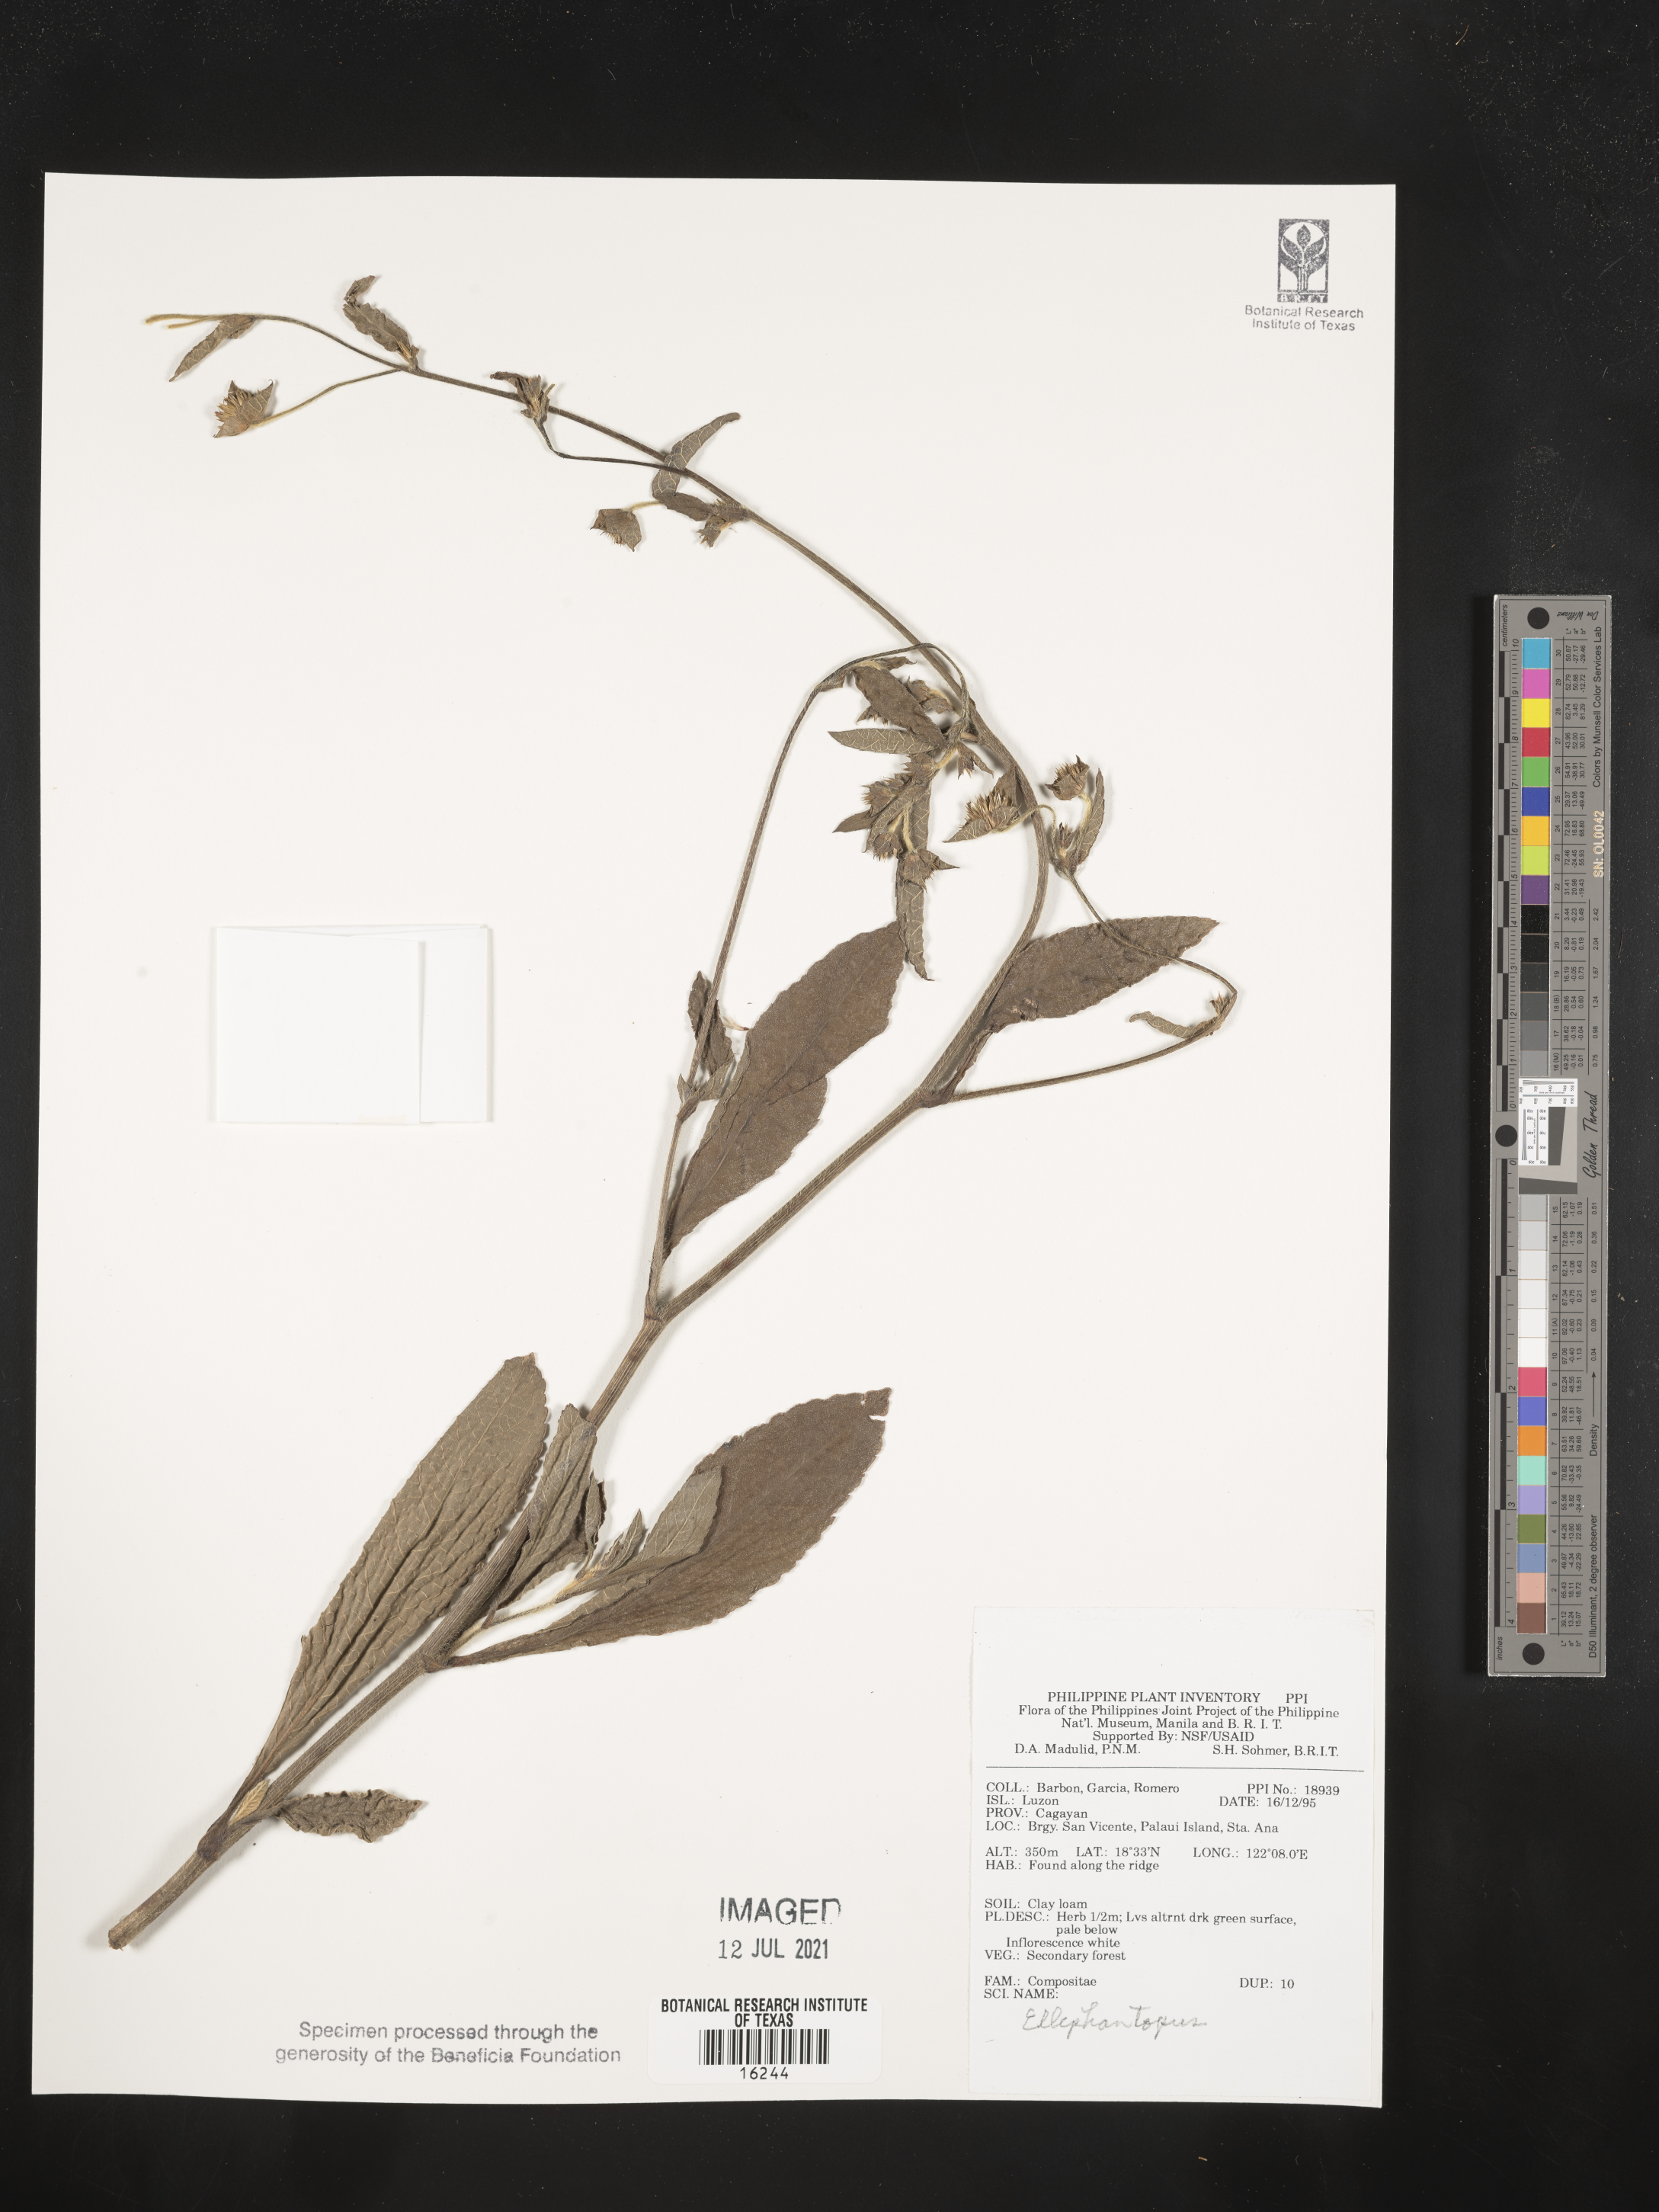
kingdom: Plantae
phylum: Tracheophyta
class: Magnoliopsida
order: Asterales
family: Asteraceae
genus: Elephantopus
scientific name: Elephantopus
